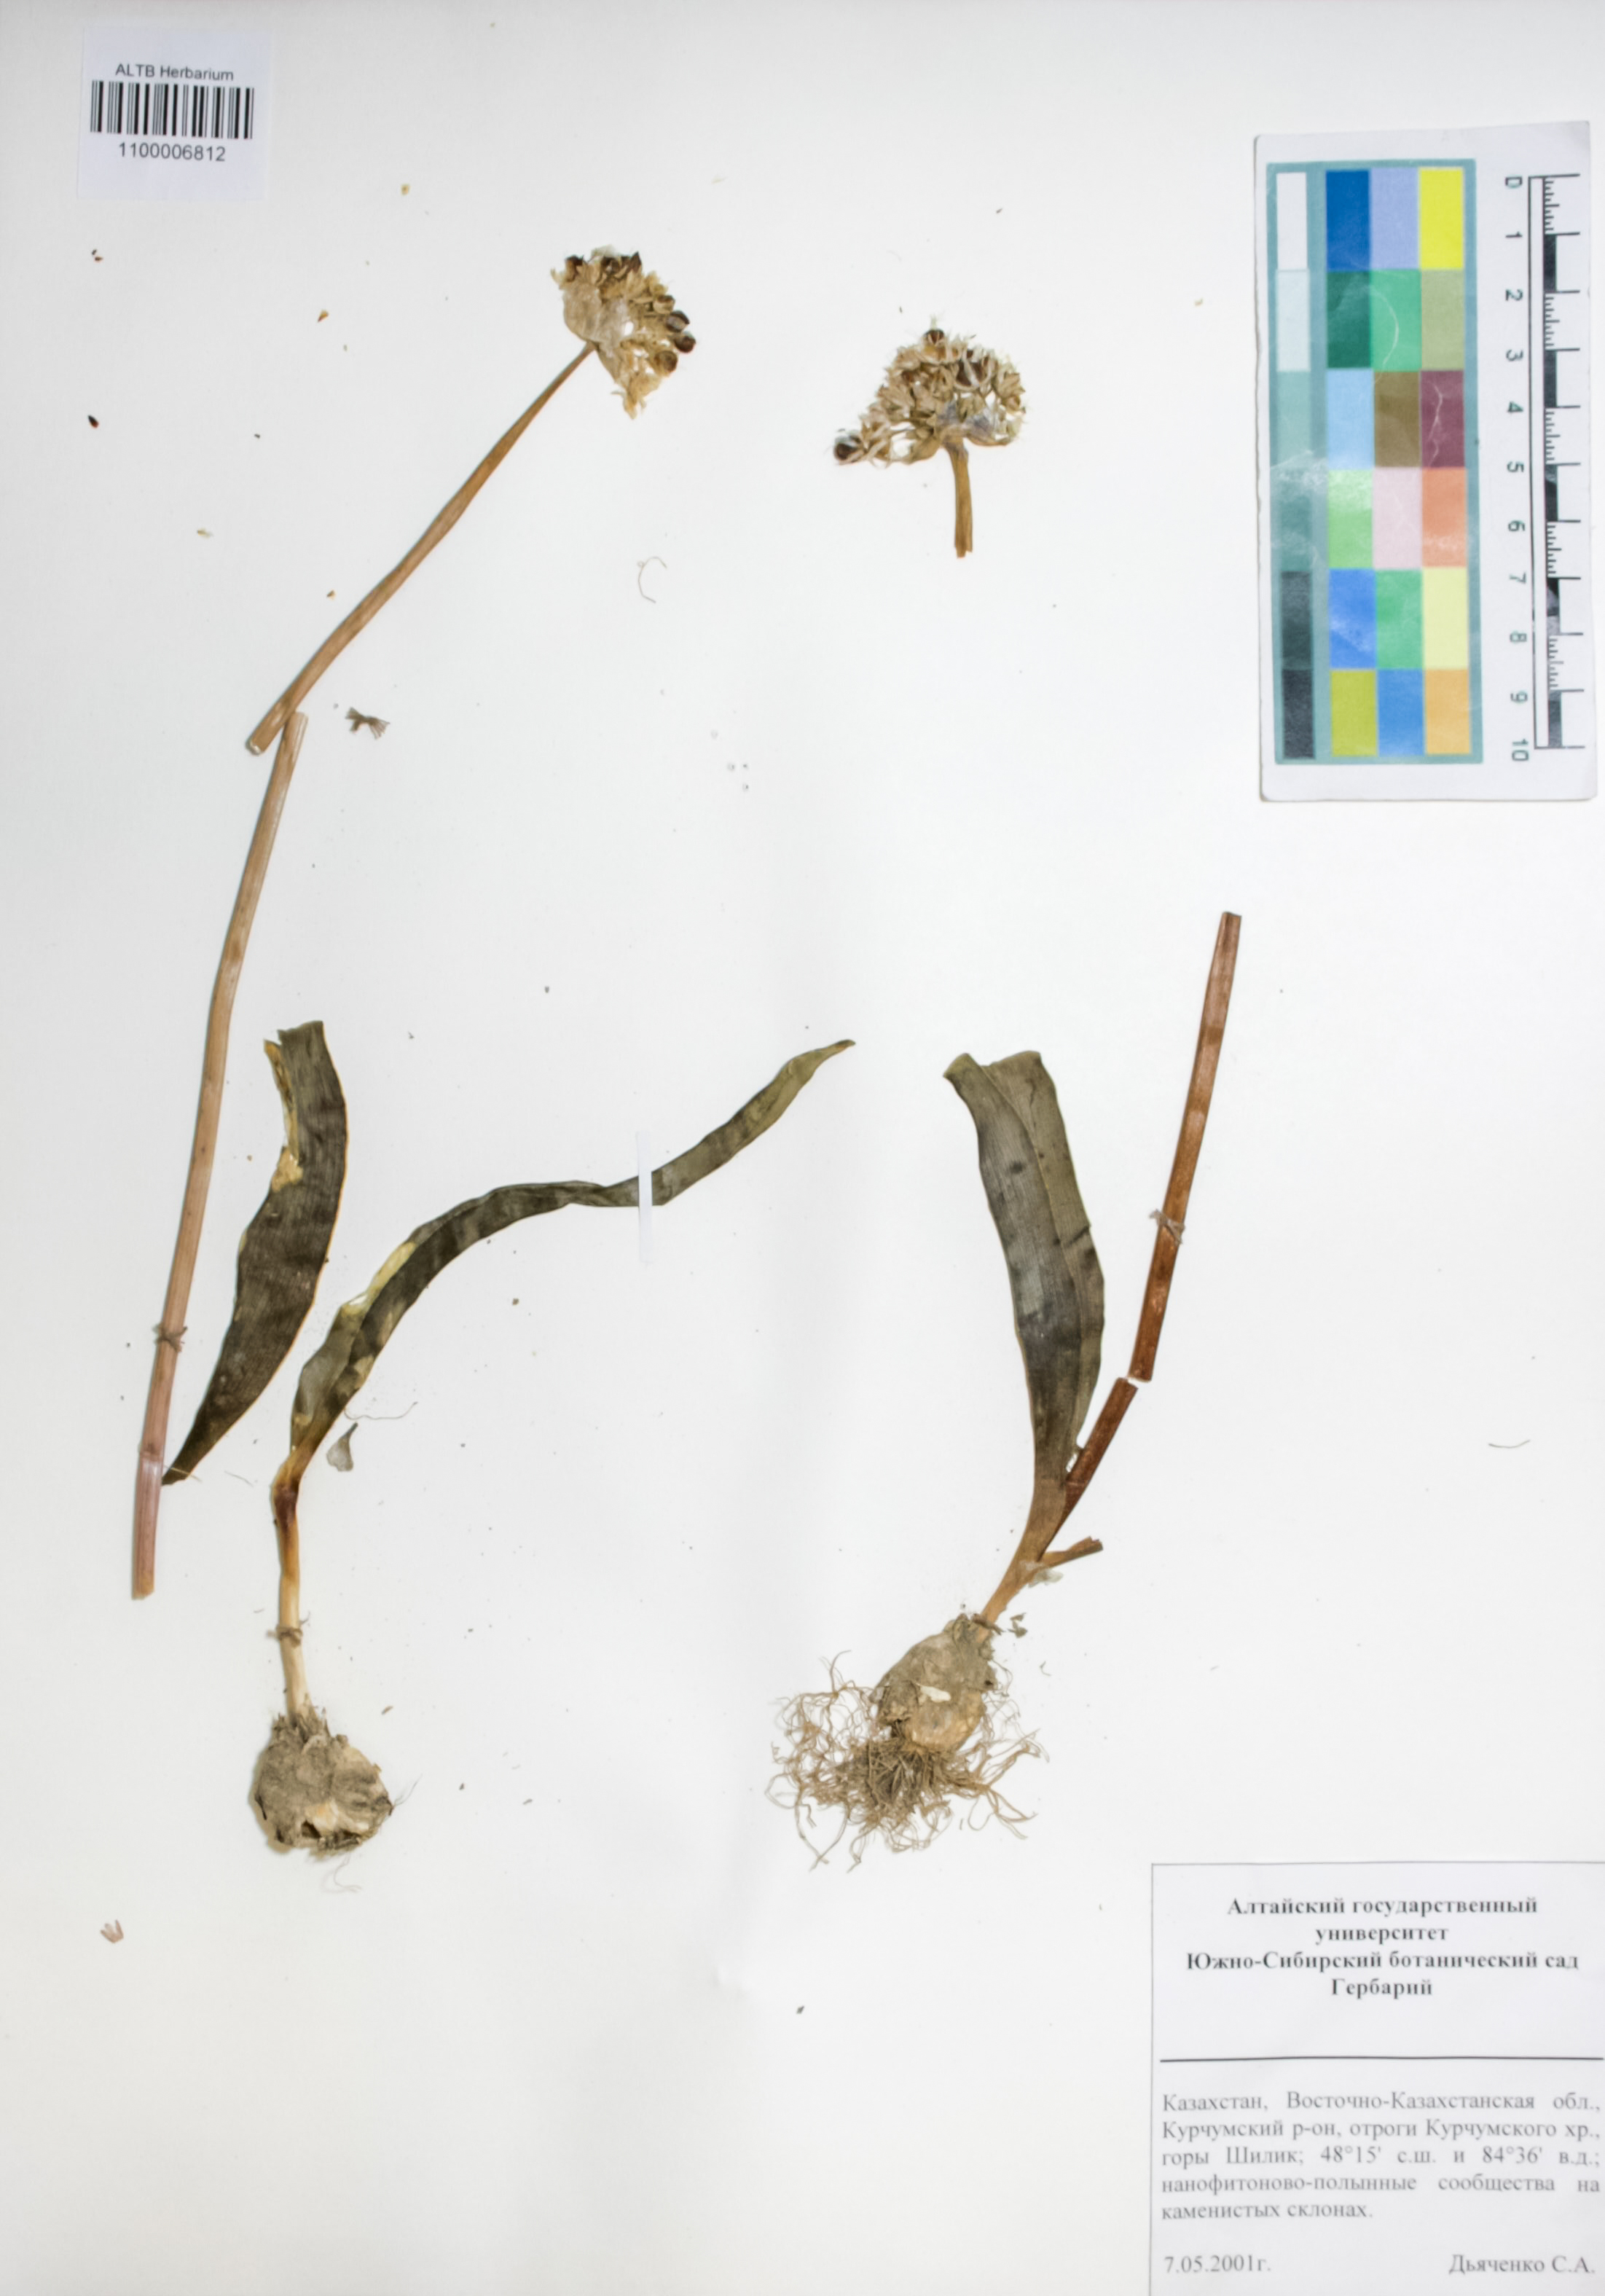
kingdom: Plantae
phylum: Tracheophyta
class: Liliopsida
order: Asparagales
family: Amaryllidaceae
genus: Allium
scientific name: Allium altaicum
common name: Altai onion
